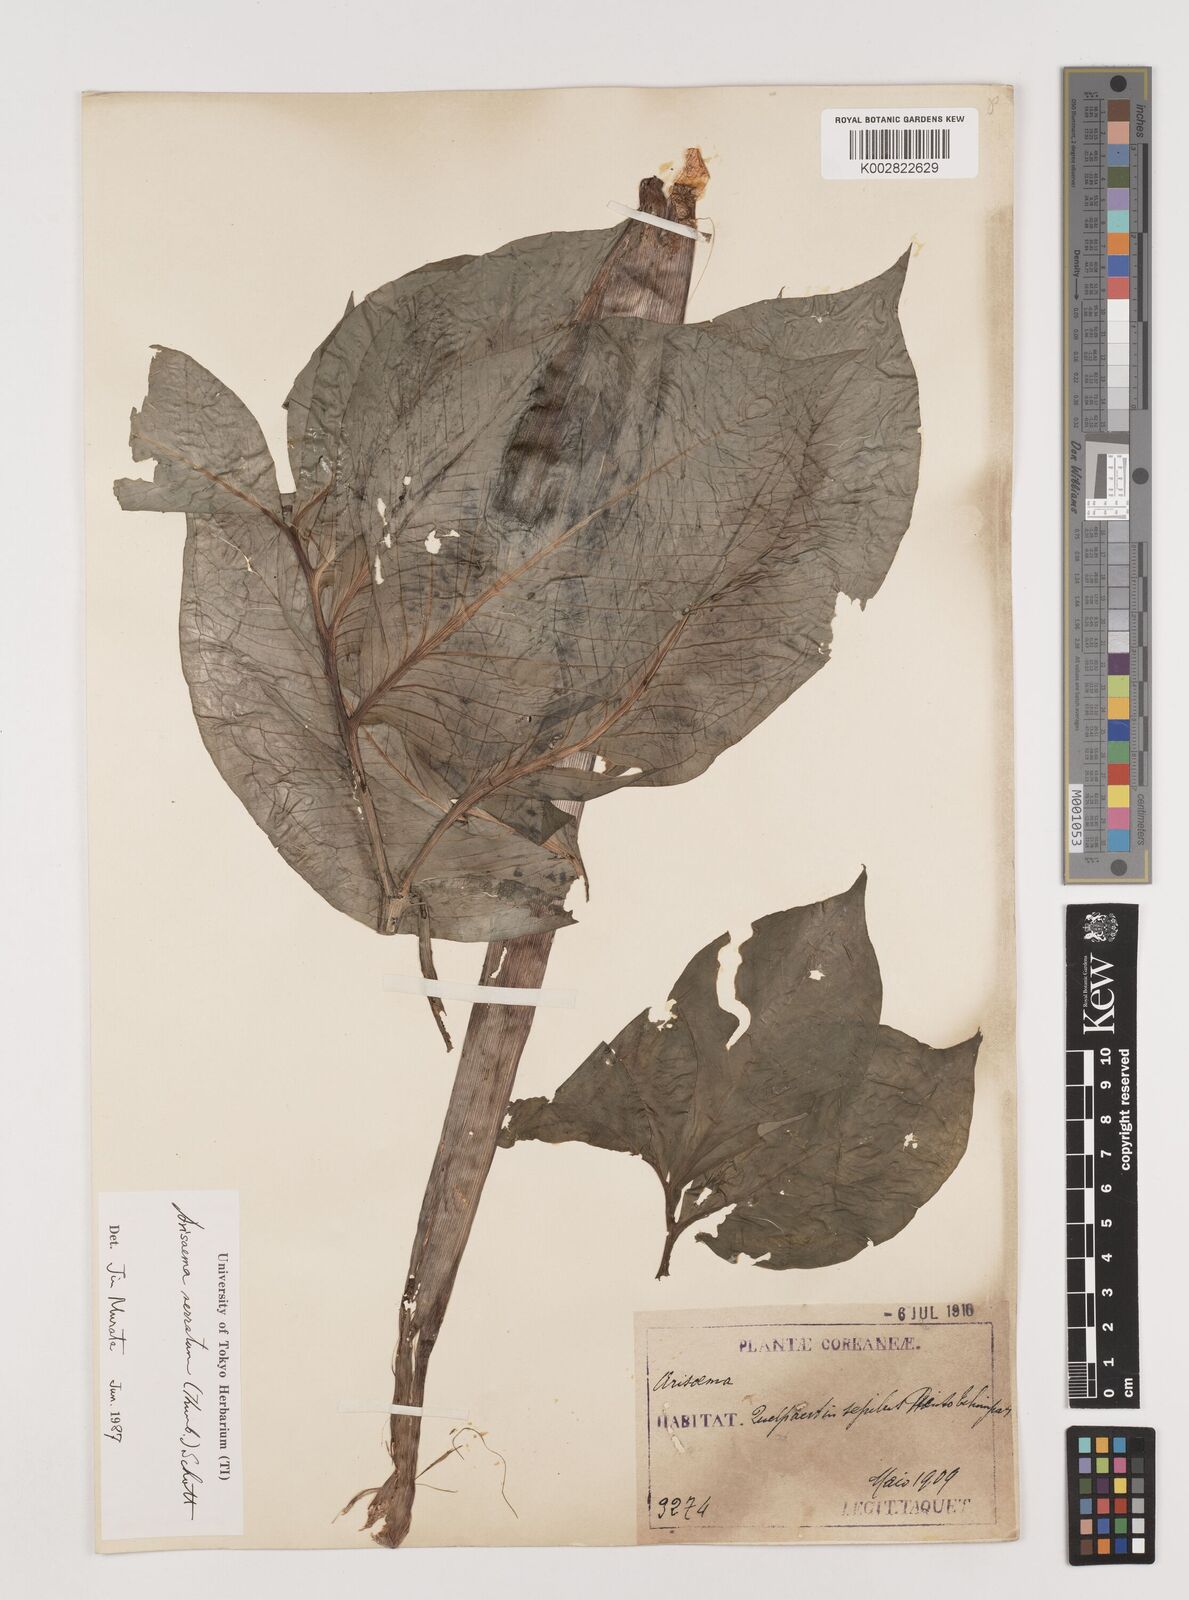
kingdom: Plantae
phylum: Tracheophyta
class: Liliopsida
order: Alismatales
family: Araceae
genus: Arisaema
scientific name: Arisaema serratum
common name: Japanese arisaema
